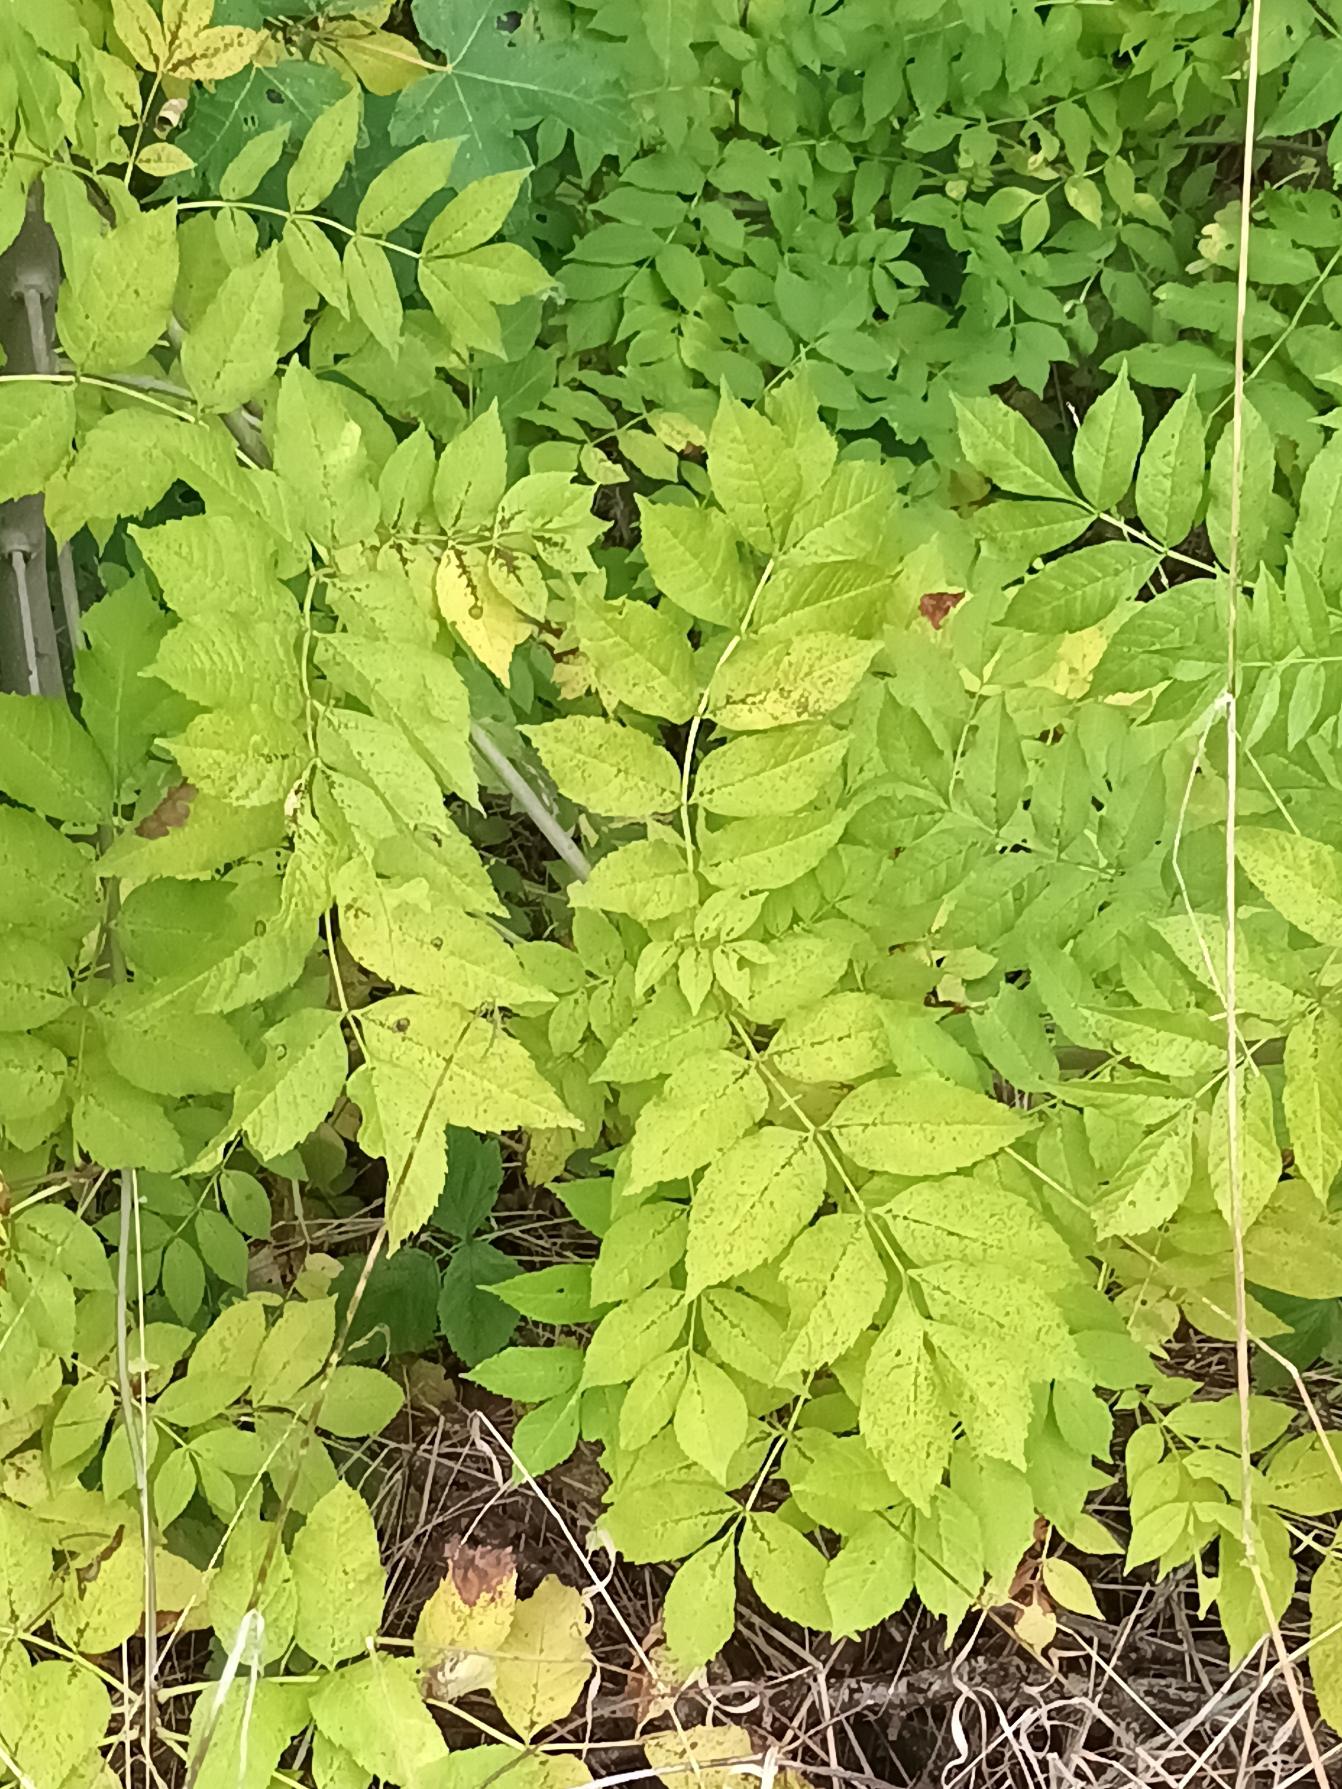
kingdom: Plantae
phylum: Tracheophyta
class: Magnoliopsida
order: Lamiales
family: Oleaceae
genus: Fraxinus
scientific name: Fraxinus excelsior
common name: Ask
